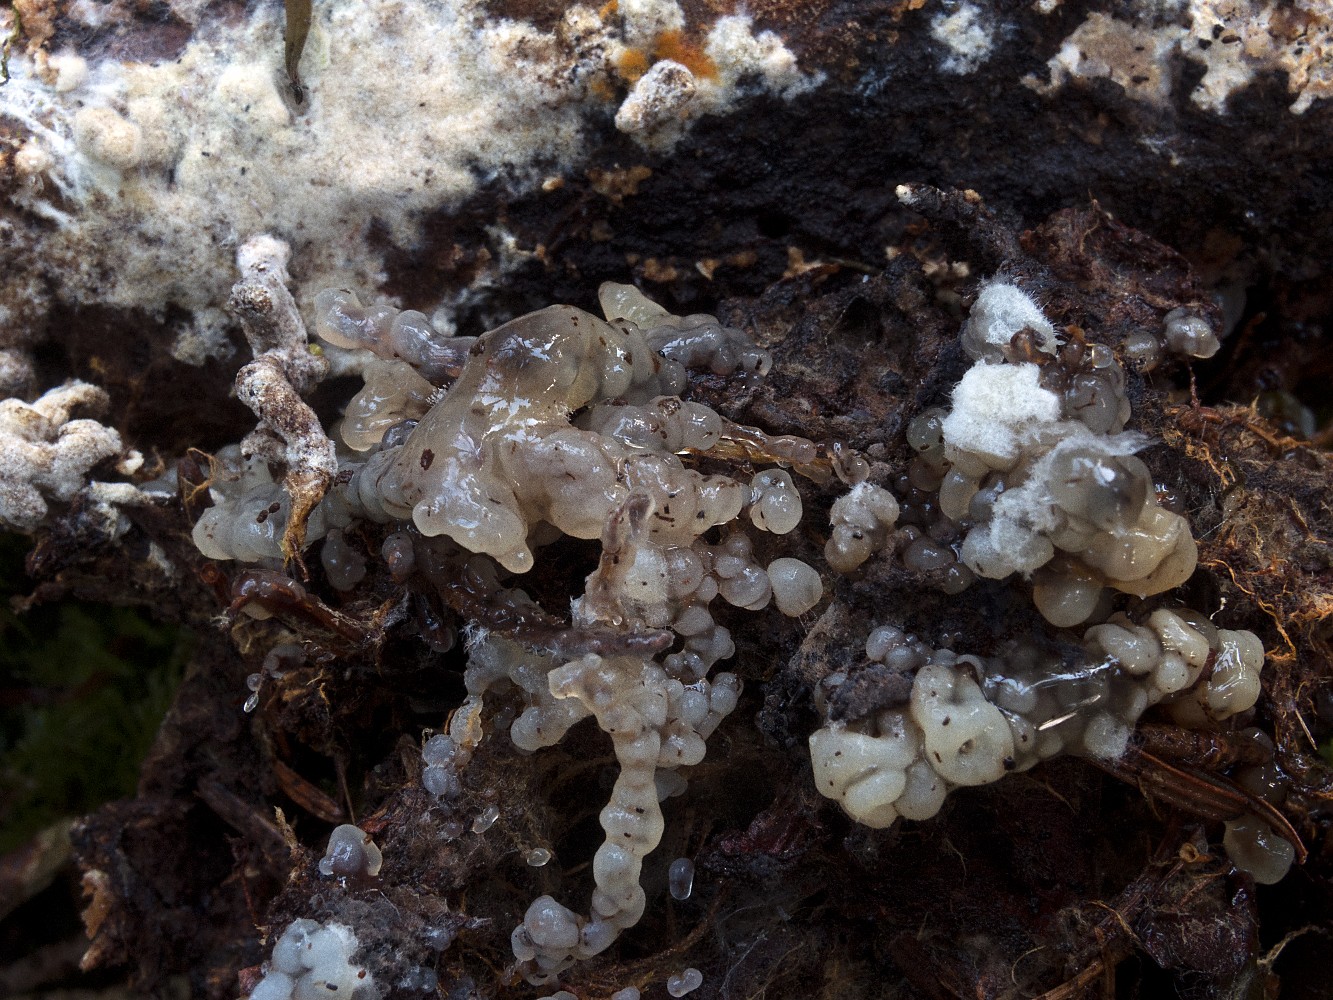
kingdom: Fungi
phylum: Basidiomycota
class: Agaricomycetes
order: Sebacinales
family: Sebacinaceae
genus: Sebacina
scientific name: Sebacina
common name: bævretalg
